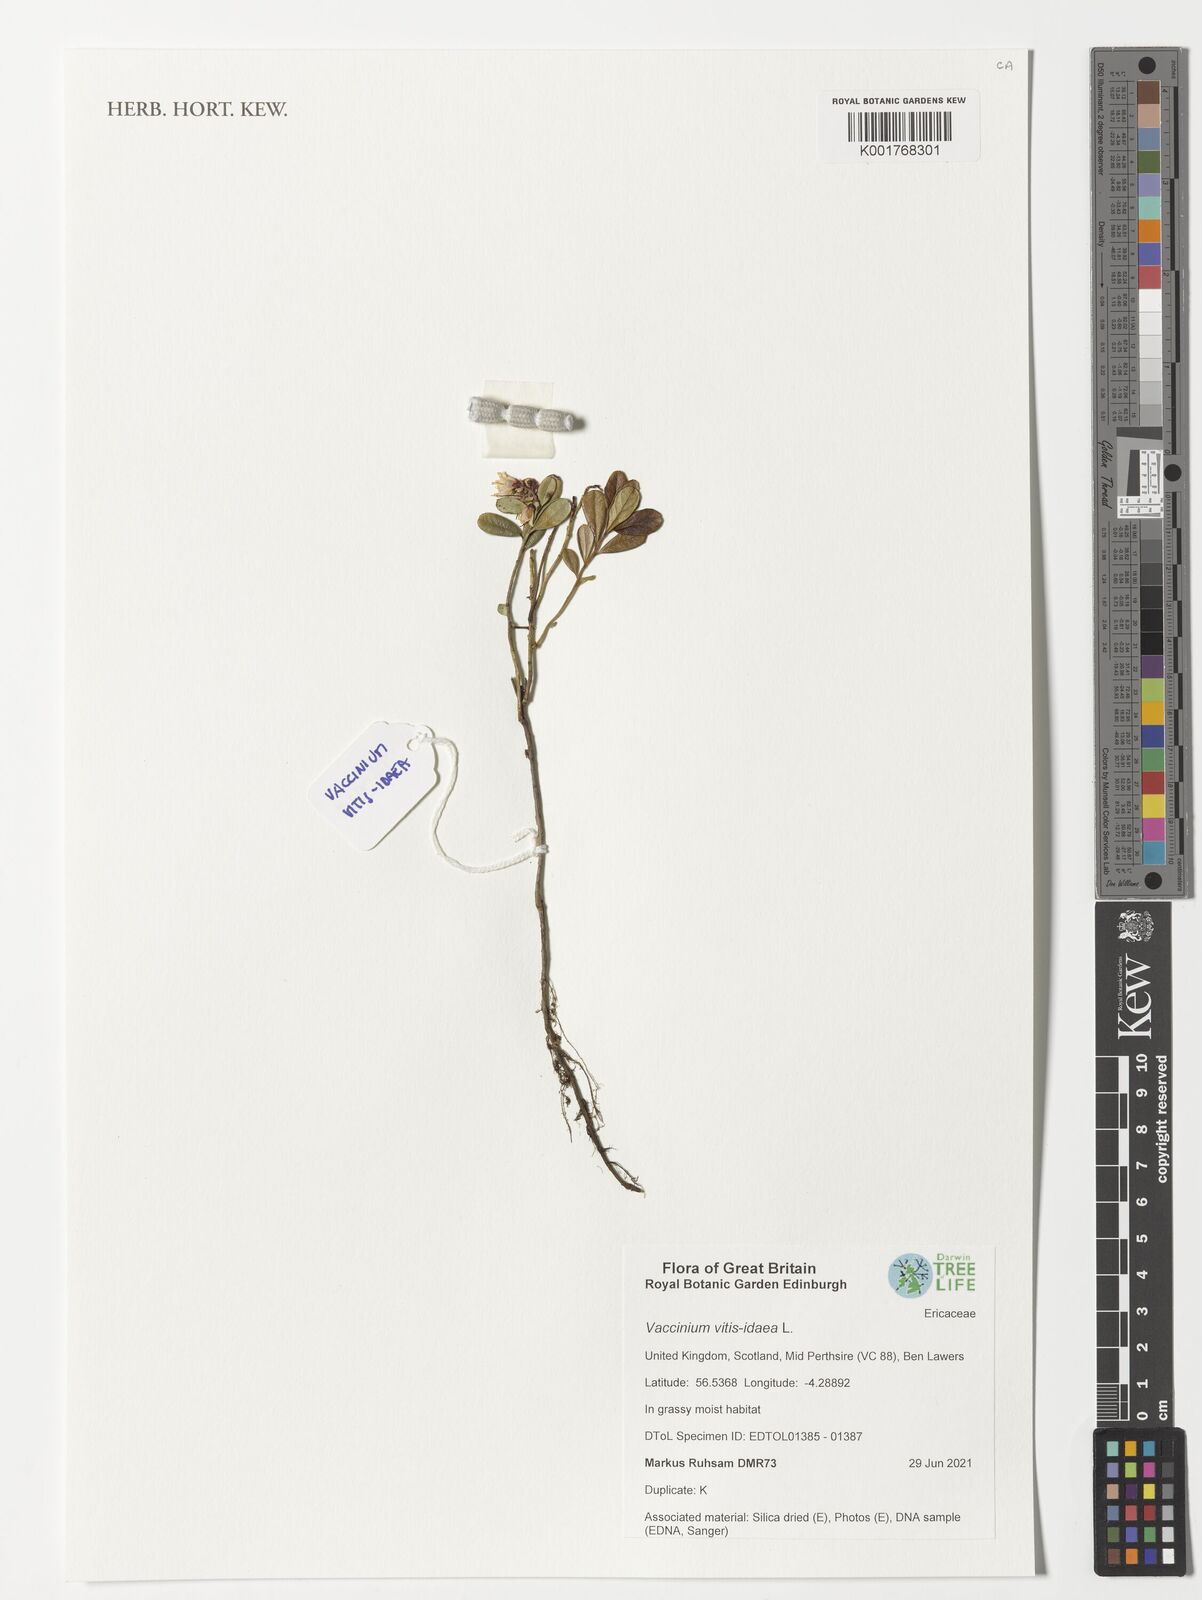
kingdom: Plantae
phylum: Tracheophyta
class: Magnoliopsida
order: Ericales
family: Ericaceae
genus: Vaccinium
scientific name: Vaccinium vitis-idaea
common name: Cowberry
